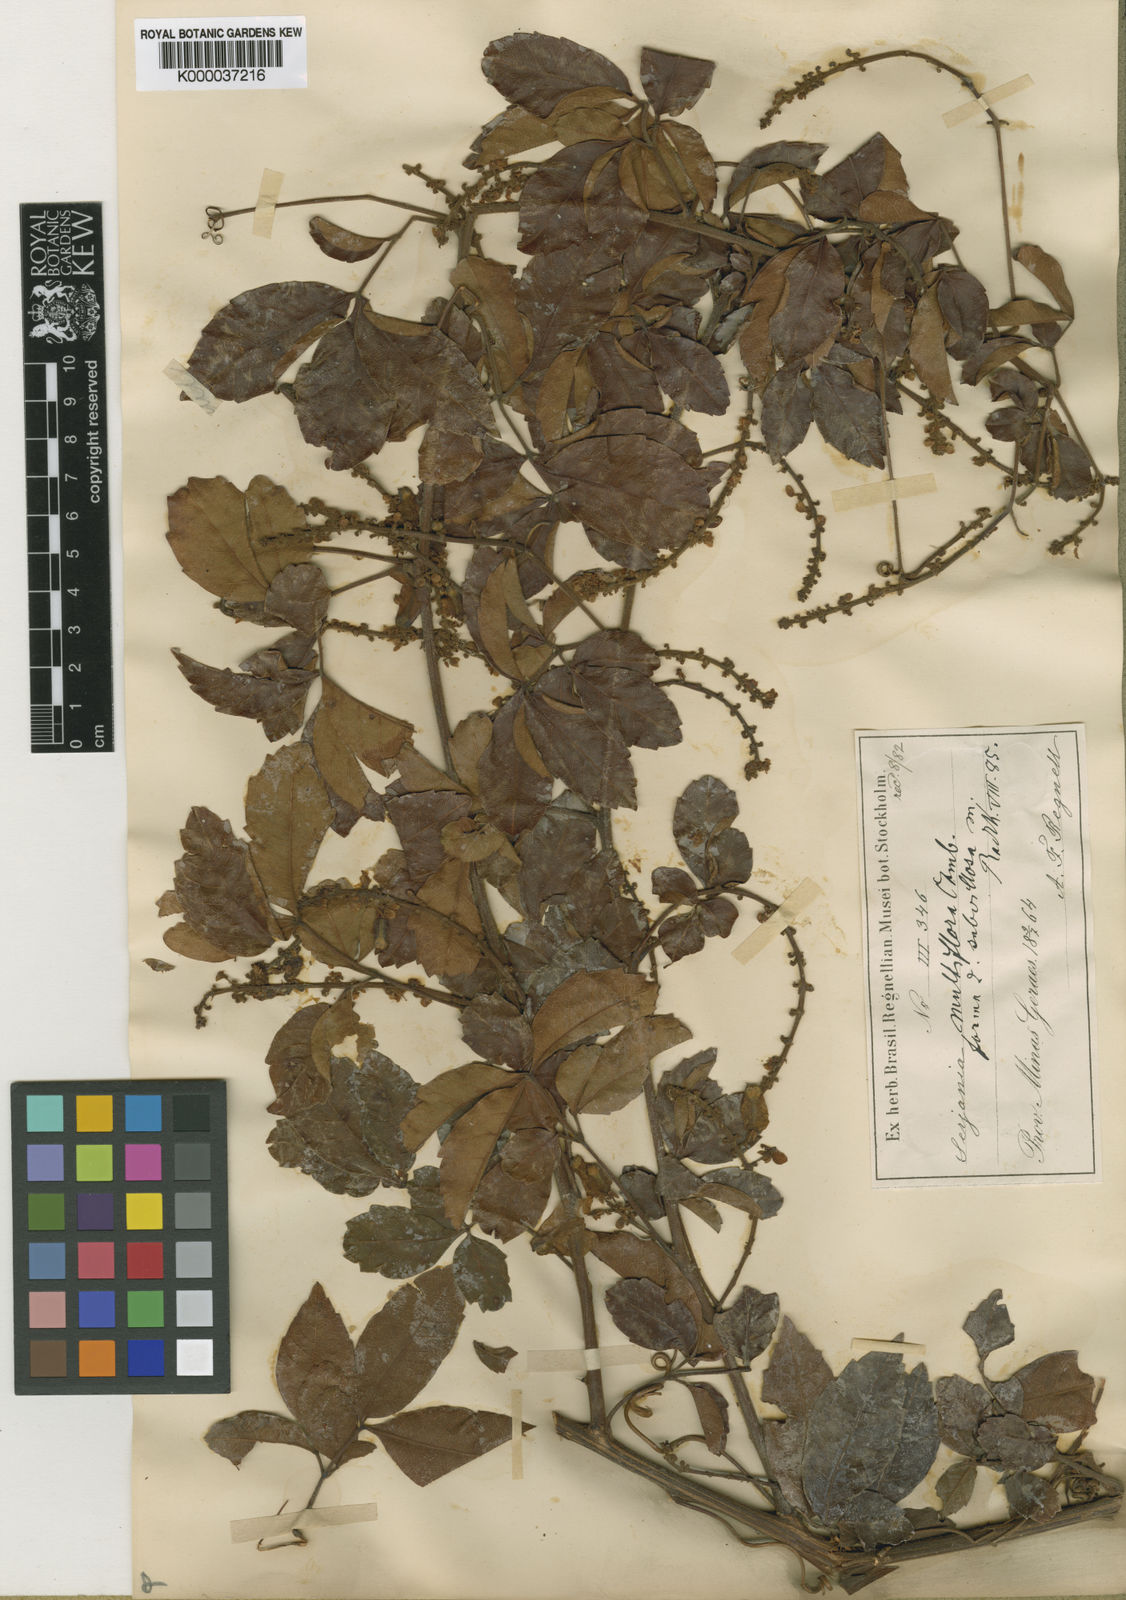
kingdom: Plantae
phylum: Tracheophyta
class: Magnoliopsida
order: Sapindales
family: Sapindaceae
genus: Serjania
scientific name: Serjania multiflora
